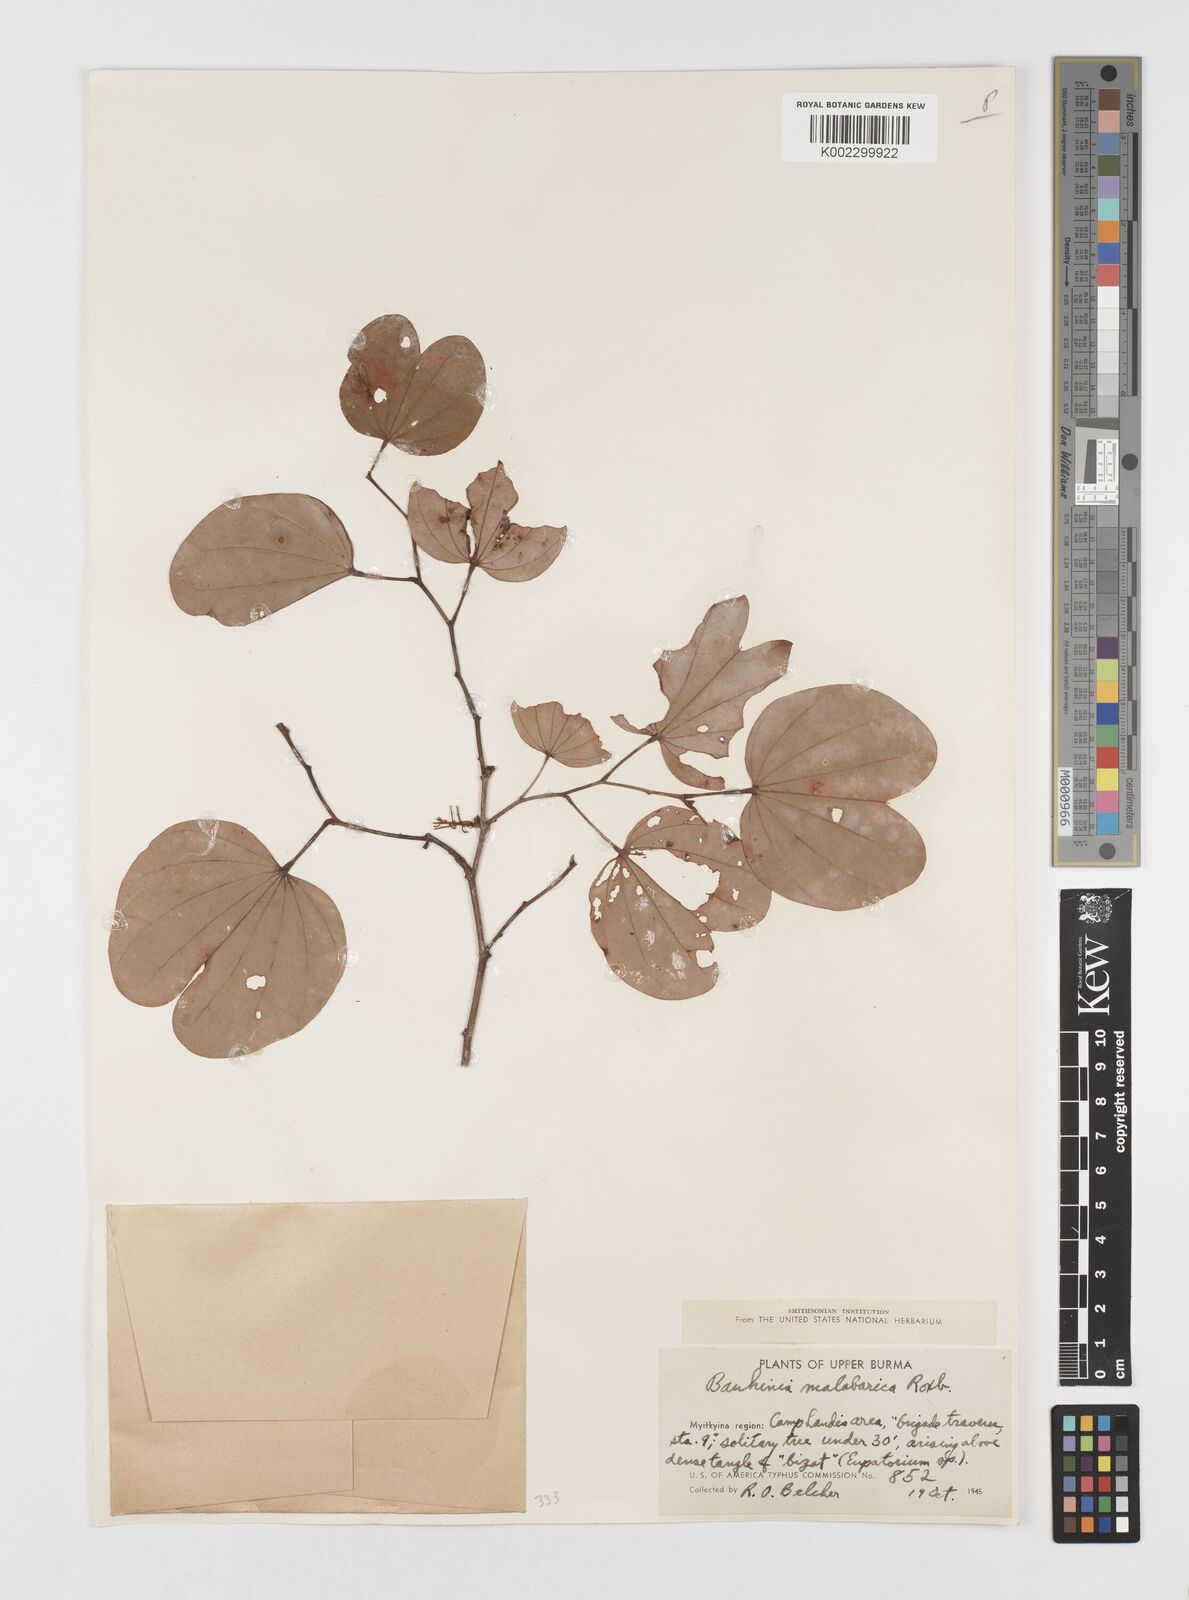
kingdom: Plantae
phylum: Tracheophyta
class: Magnoliopsida
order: Fabales
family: Fabaceae
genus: Piliostigma
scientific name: Piliostigma malabaricum
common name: Malabar bauhinia
